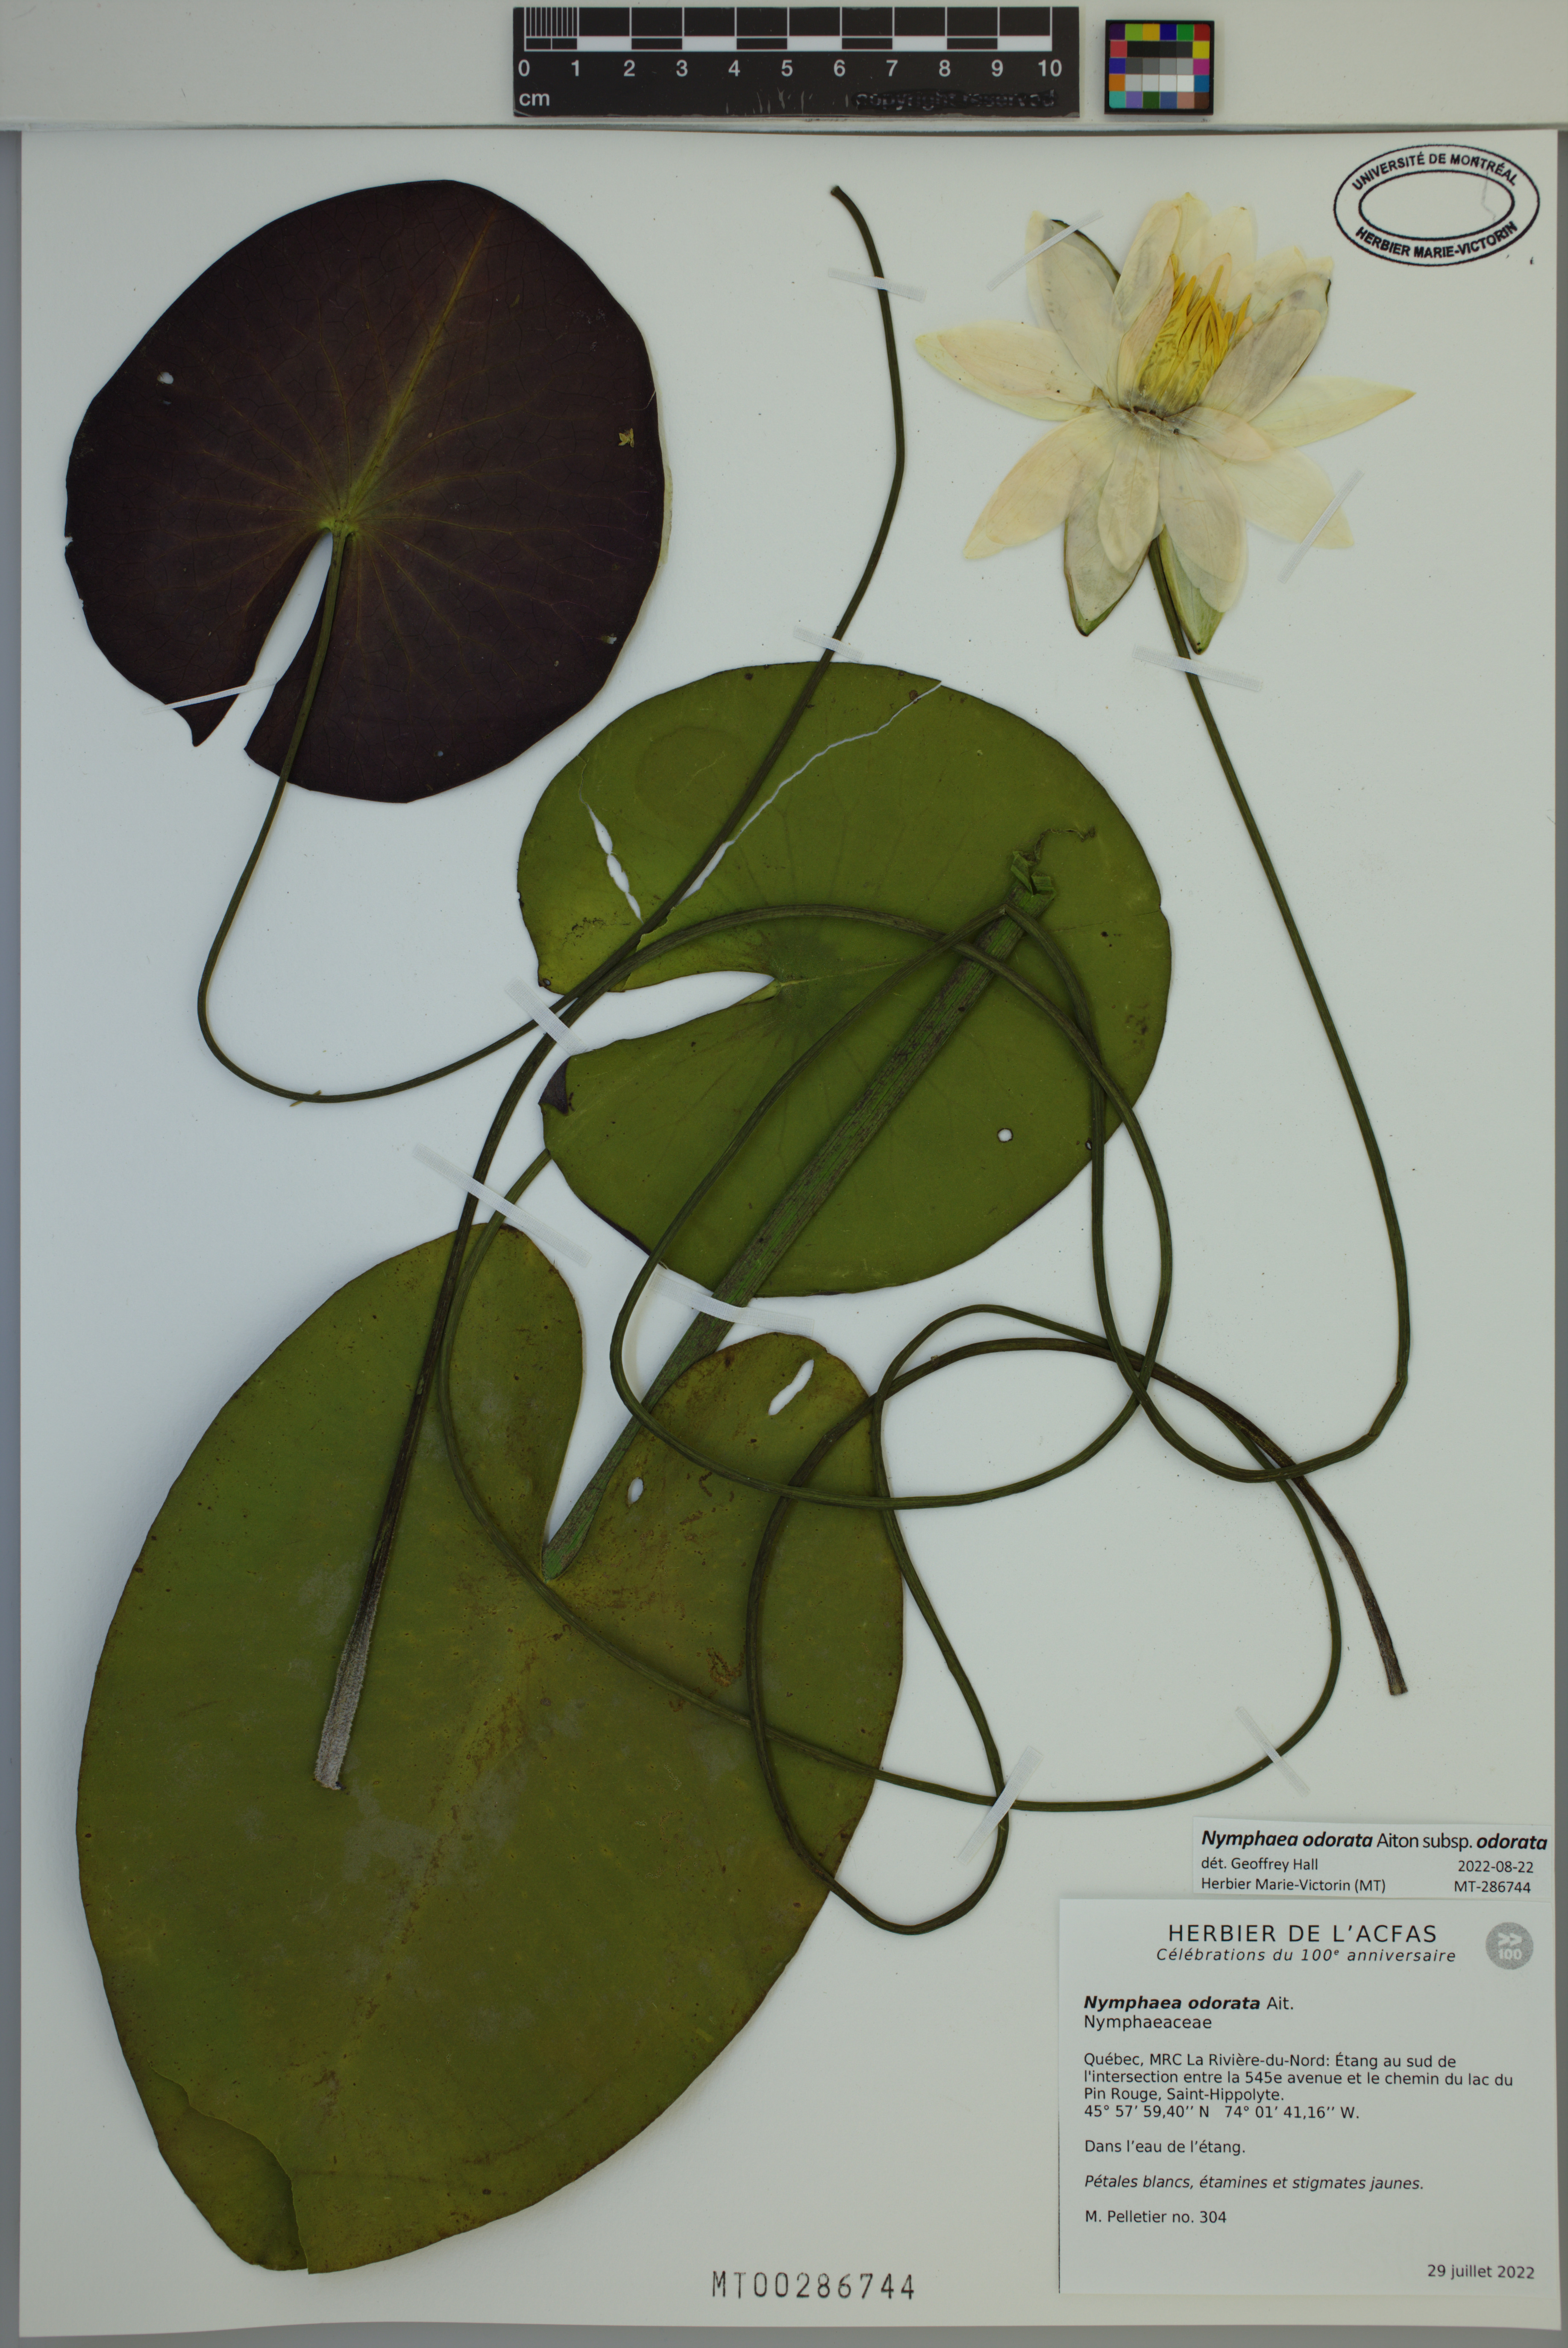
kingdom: Plantae
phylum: Tracheophyta
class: Magnoliopsida
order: Nymphaeales
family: Nymphaeaceae
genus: Nymphaea
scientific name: Nymphaea odorata
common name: Fragrant water-lily
